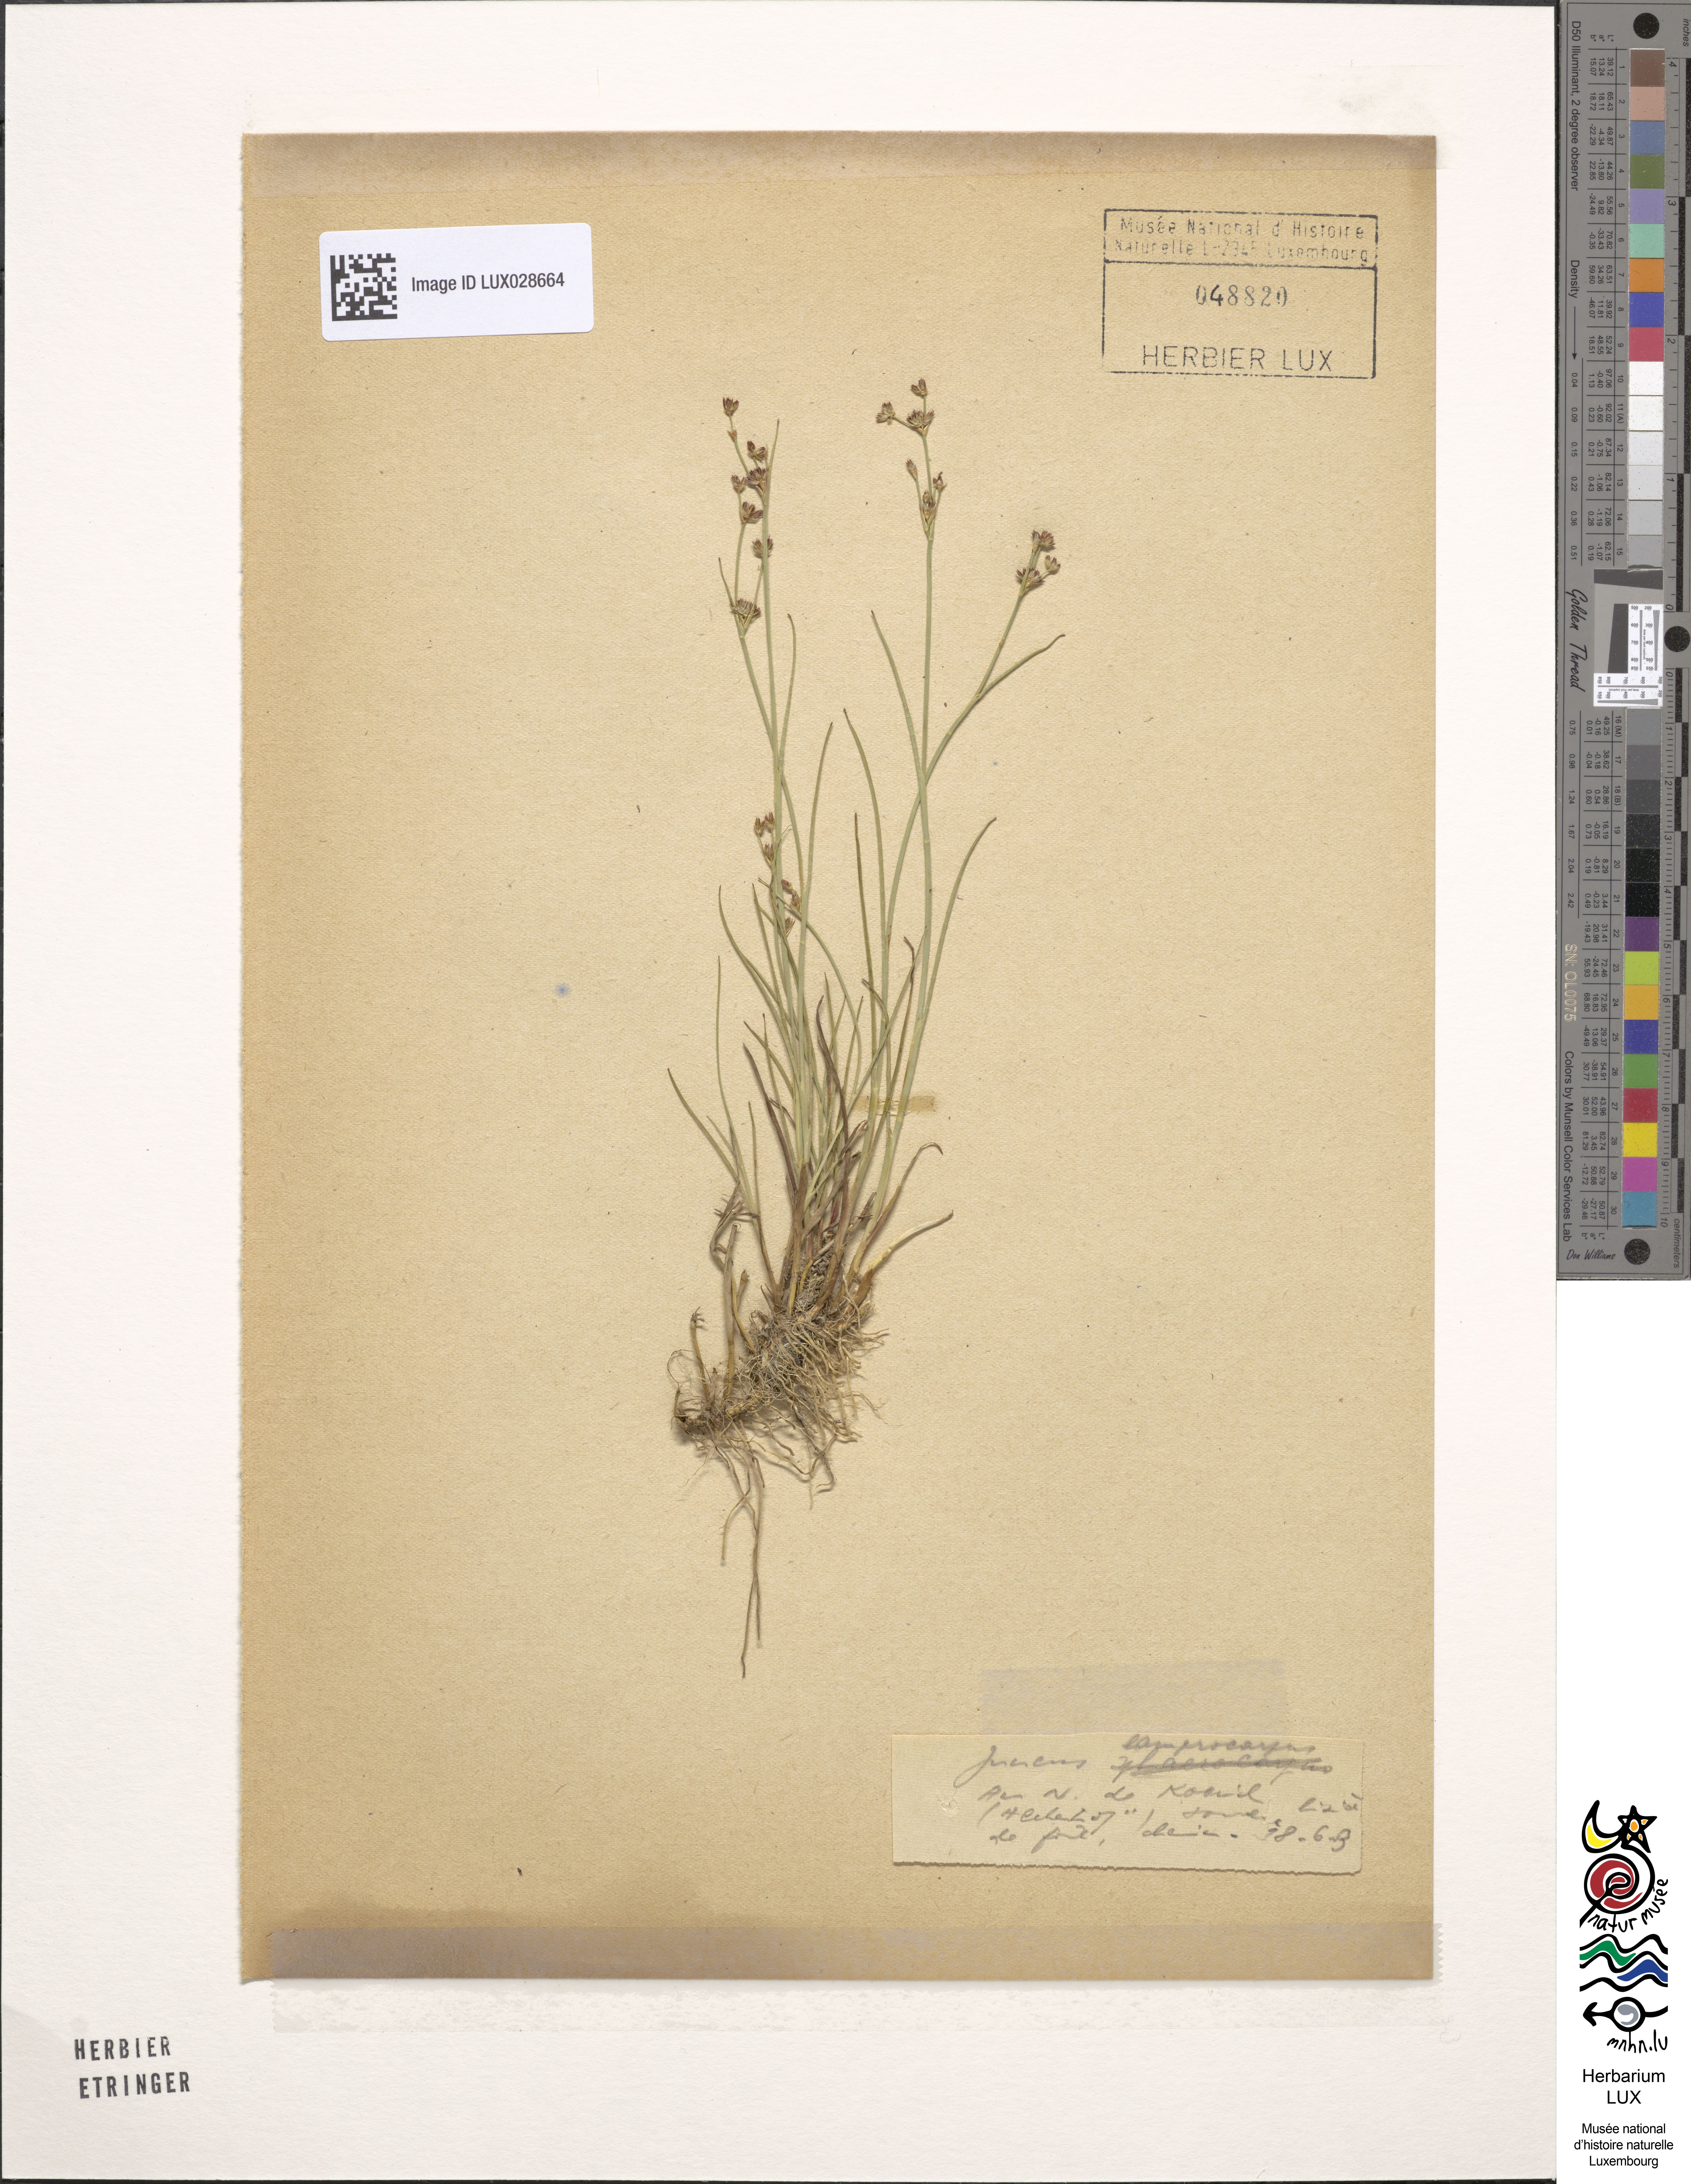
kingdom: Plantae
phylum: Tracheophyta
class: Liliopsida
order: Poales
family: Juncaceae
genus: Juncus
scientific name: Juncus articulatus
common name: Jointed rush
